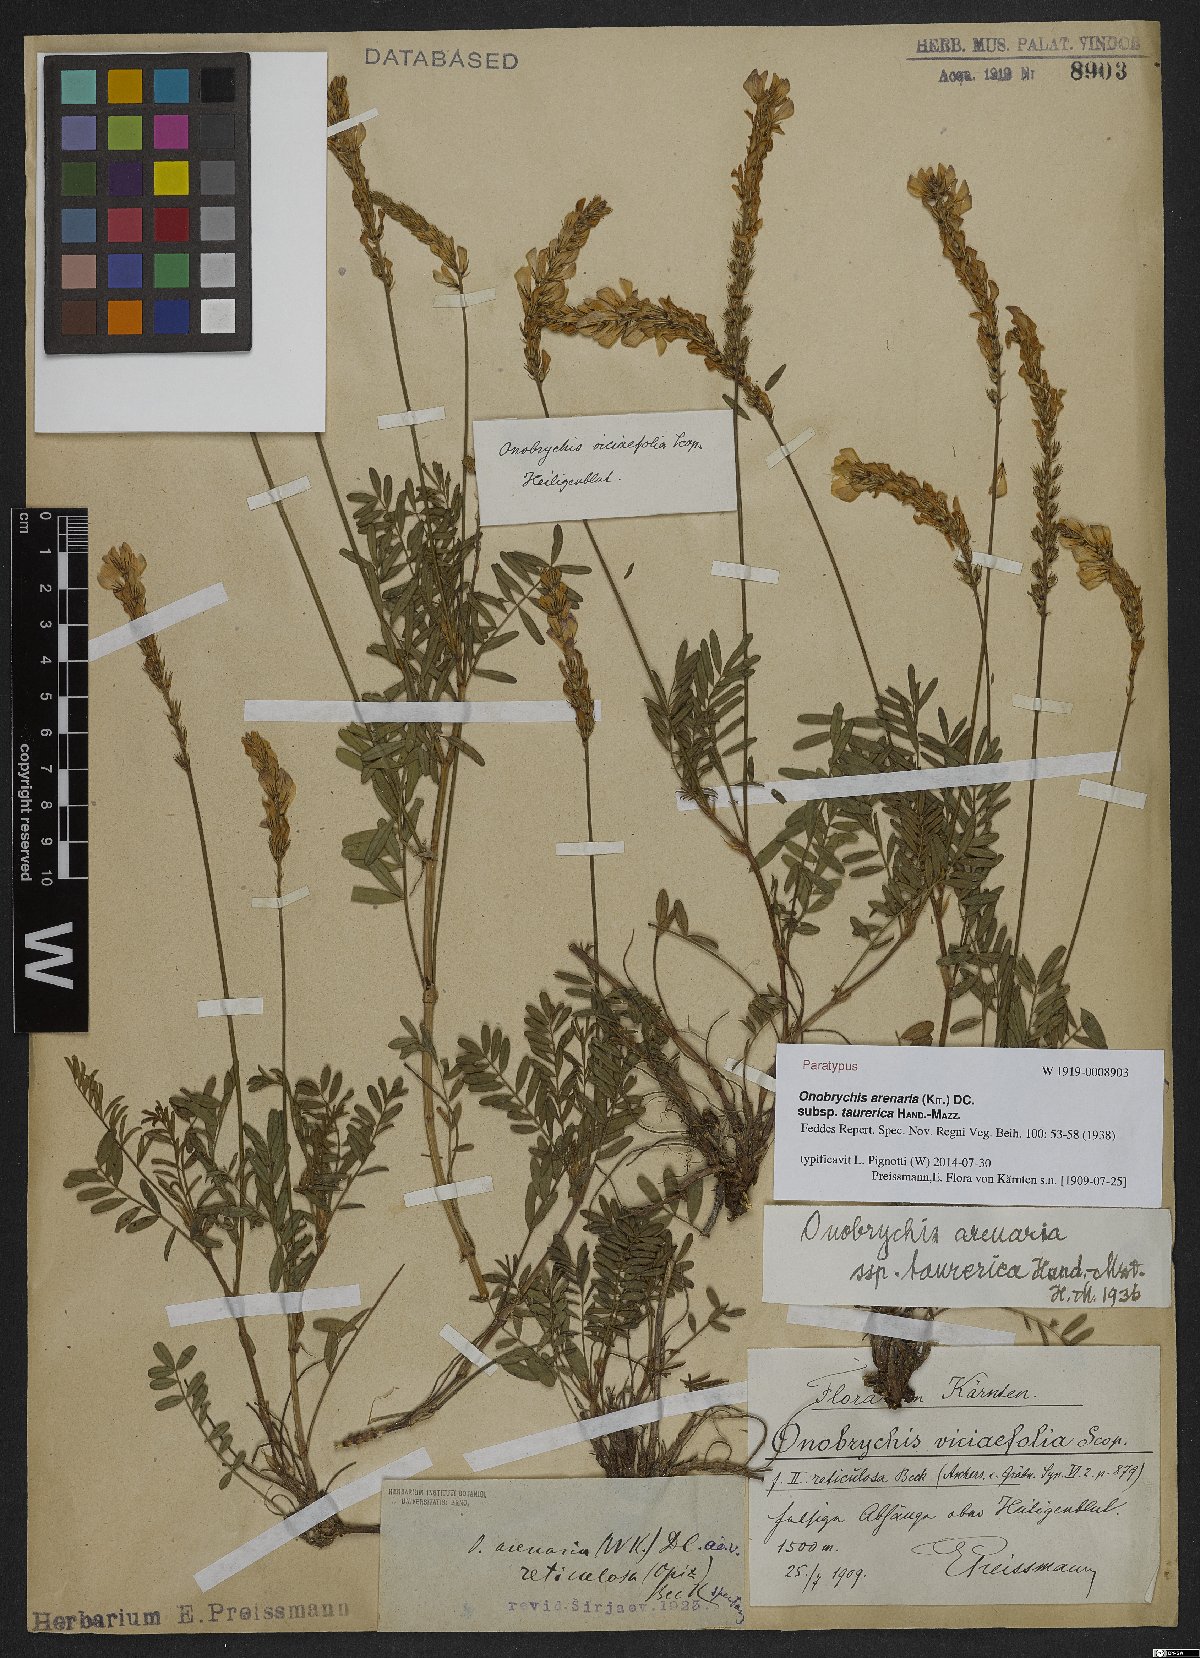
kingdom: Plantae
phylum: Tracheophyta
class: Magnoliopsida
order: Fabales
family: Fabaceae
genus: Onobrychis
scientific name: Onobrychis arenaria
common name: Sand esparcet
